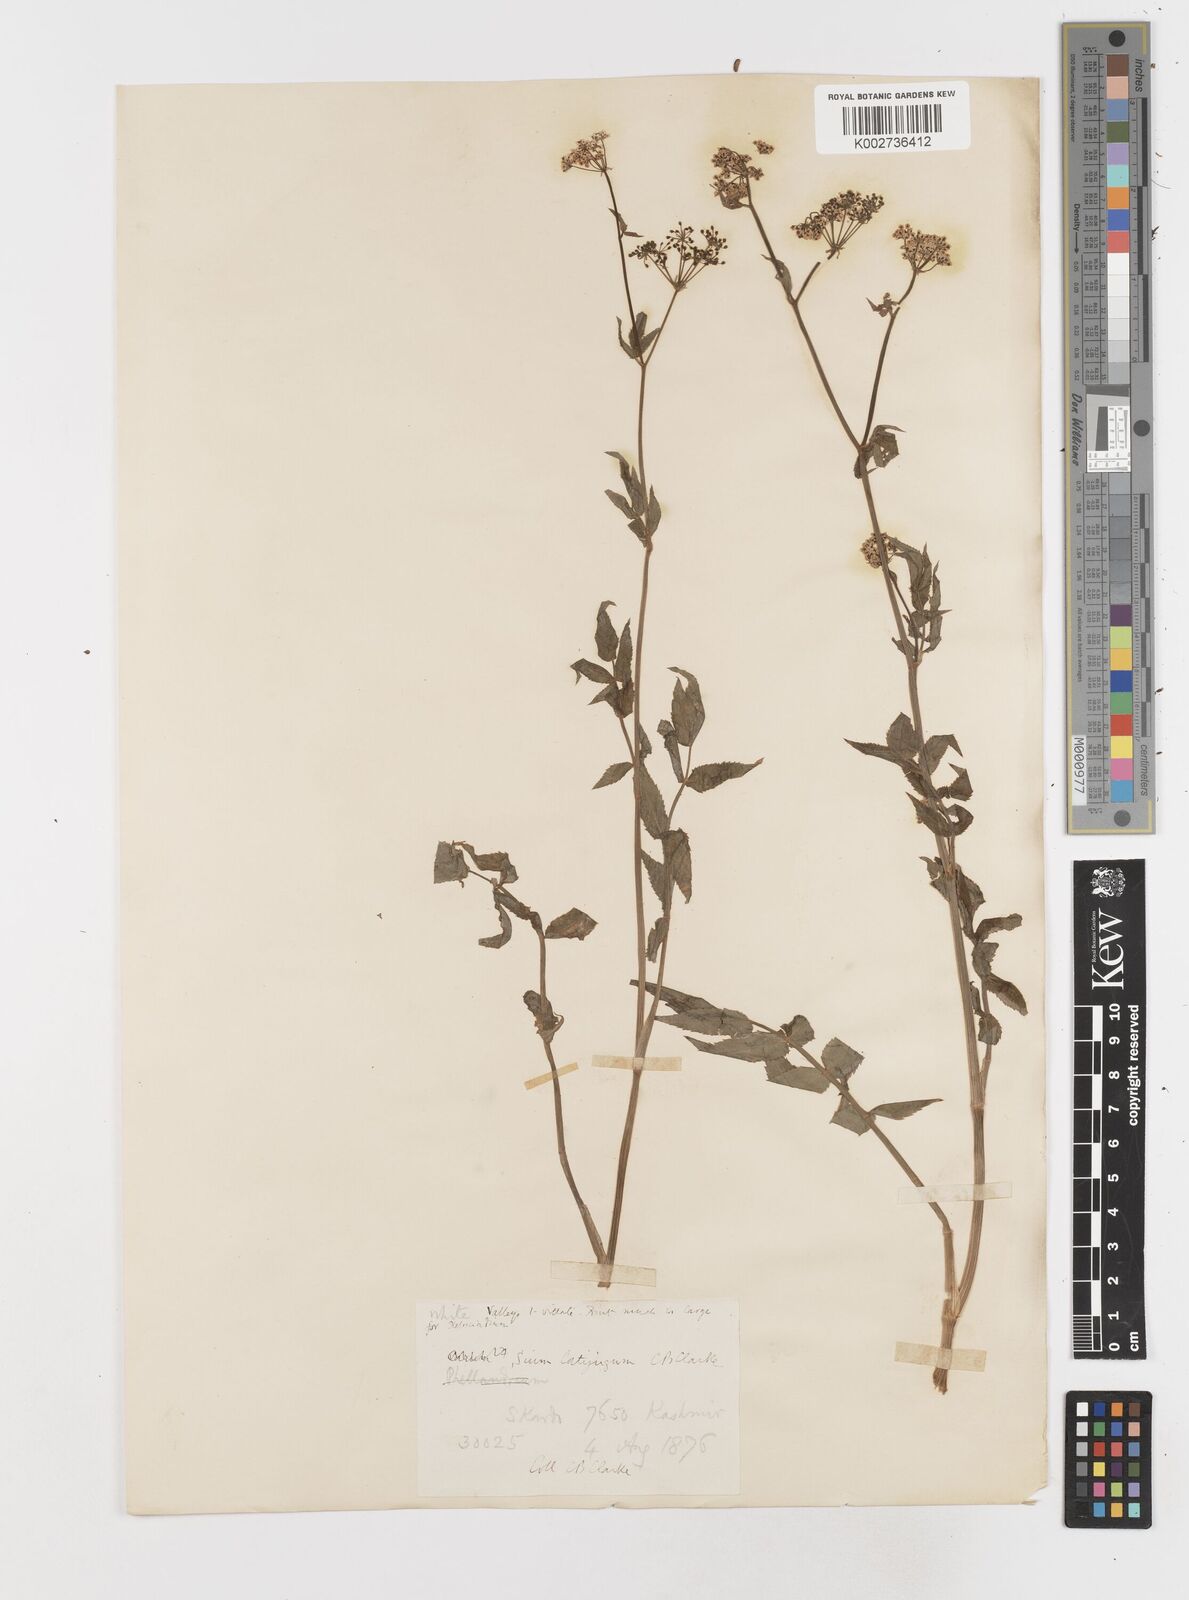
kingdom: Plantae
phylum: Tracheophyta
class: Magnoliopsida
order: Apiales
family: Apiaceae
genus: Sium
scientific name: Sium sisarum
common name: Skirret
